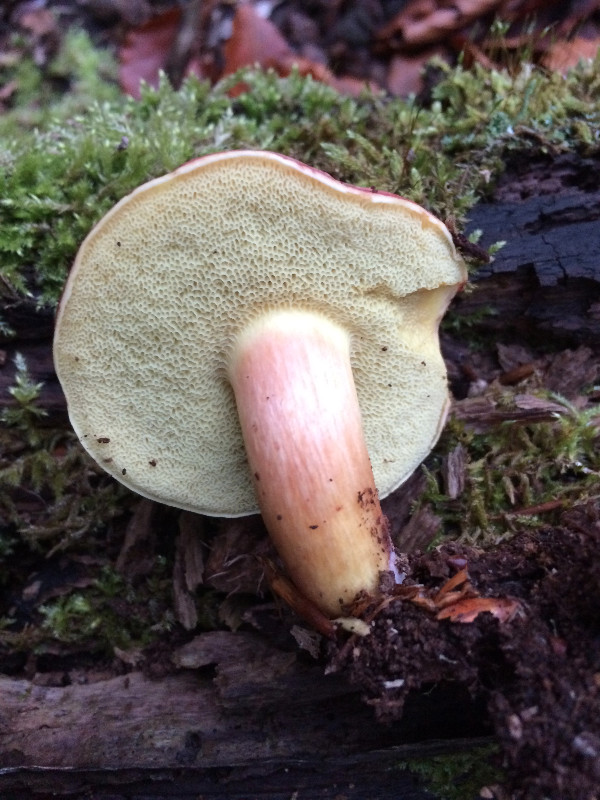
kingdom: Fungi
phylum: Basidiomycota
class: Agaricomycetes
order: Boletales
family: Boletaceae
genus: Xerocomellus
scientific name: Xerocomellus pruinatus
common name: dugget rørhat
